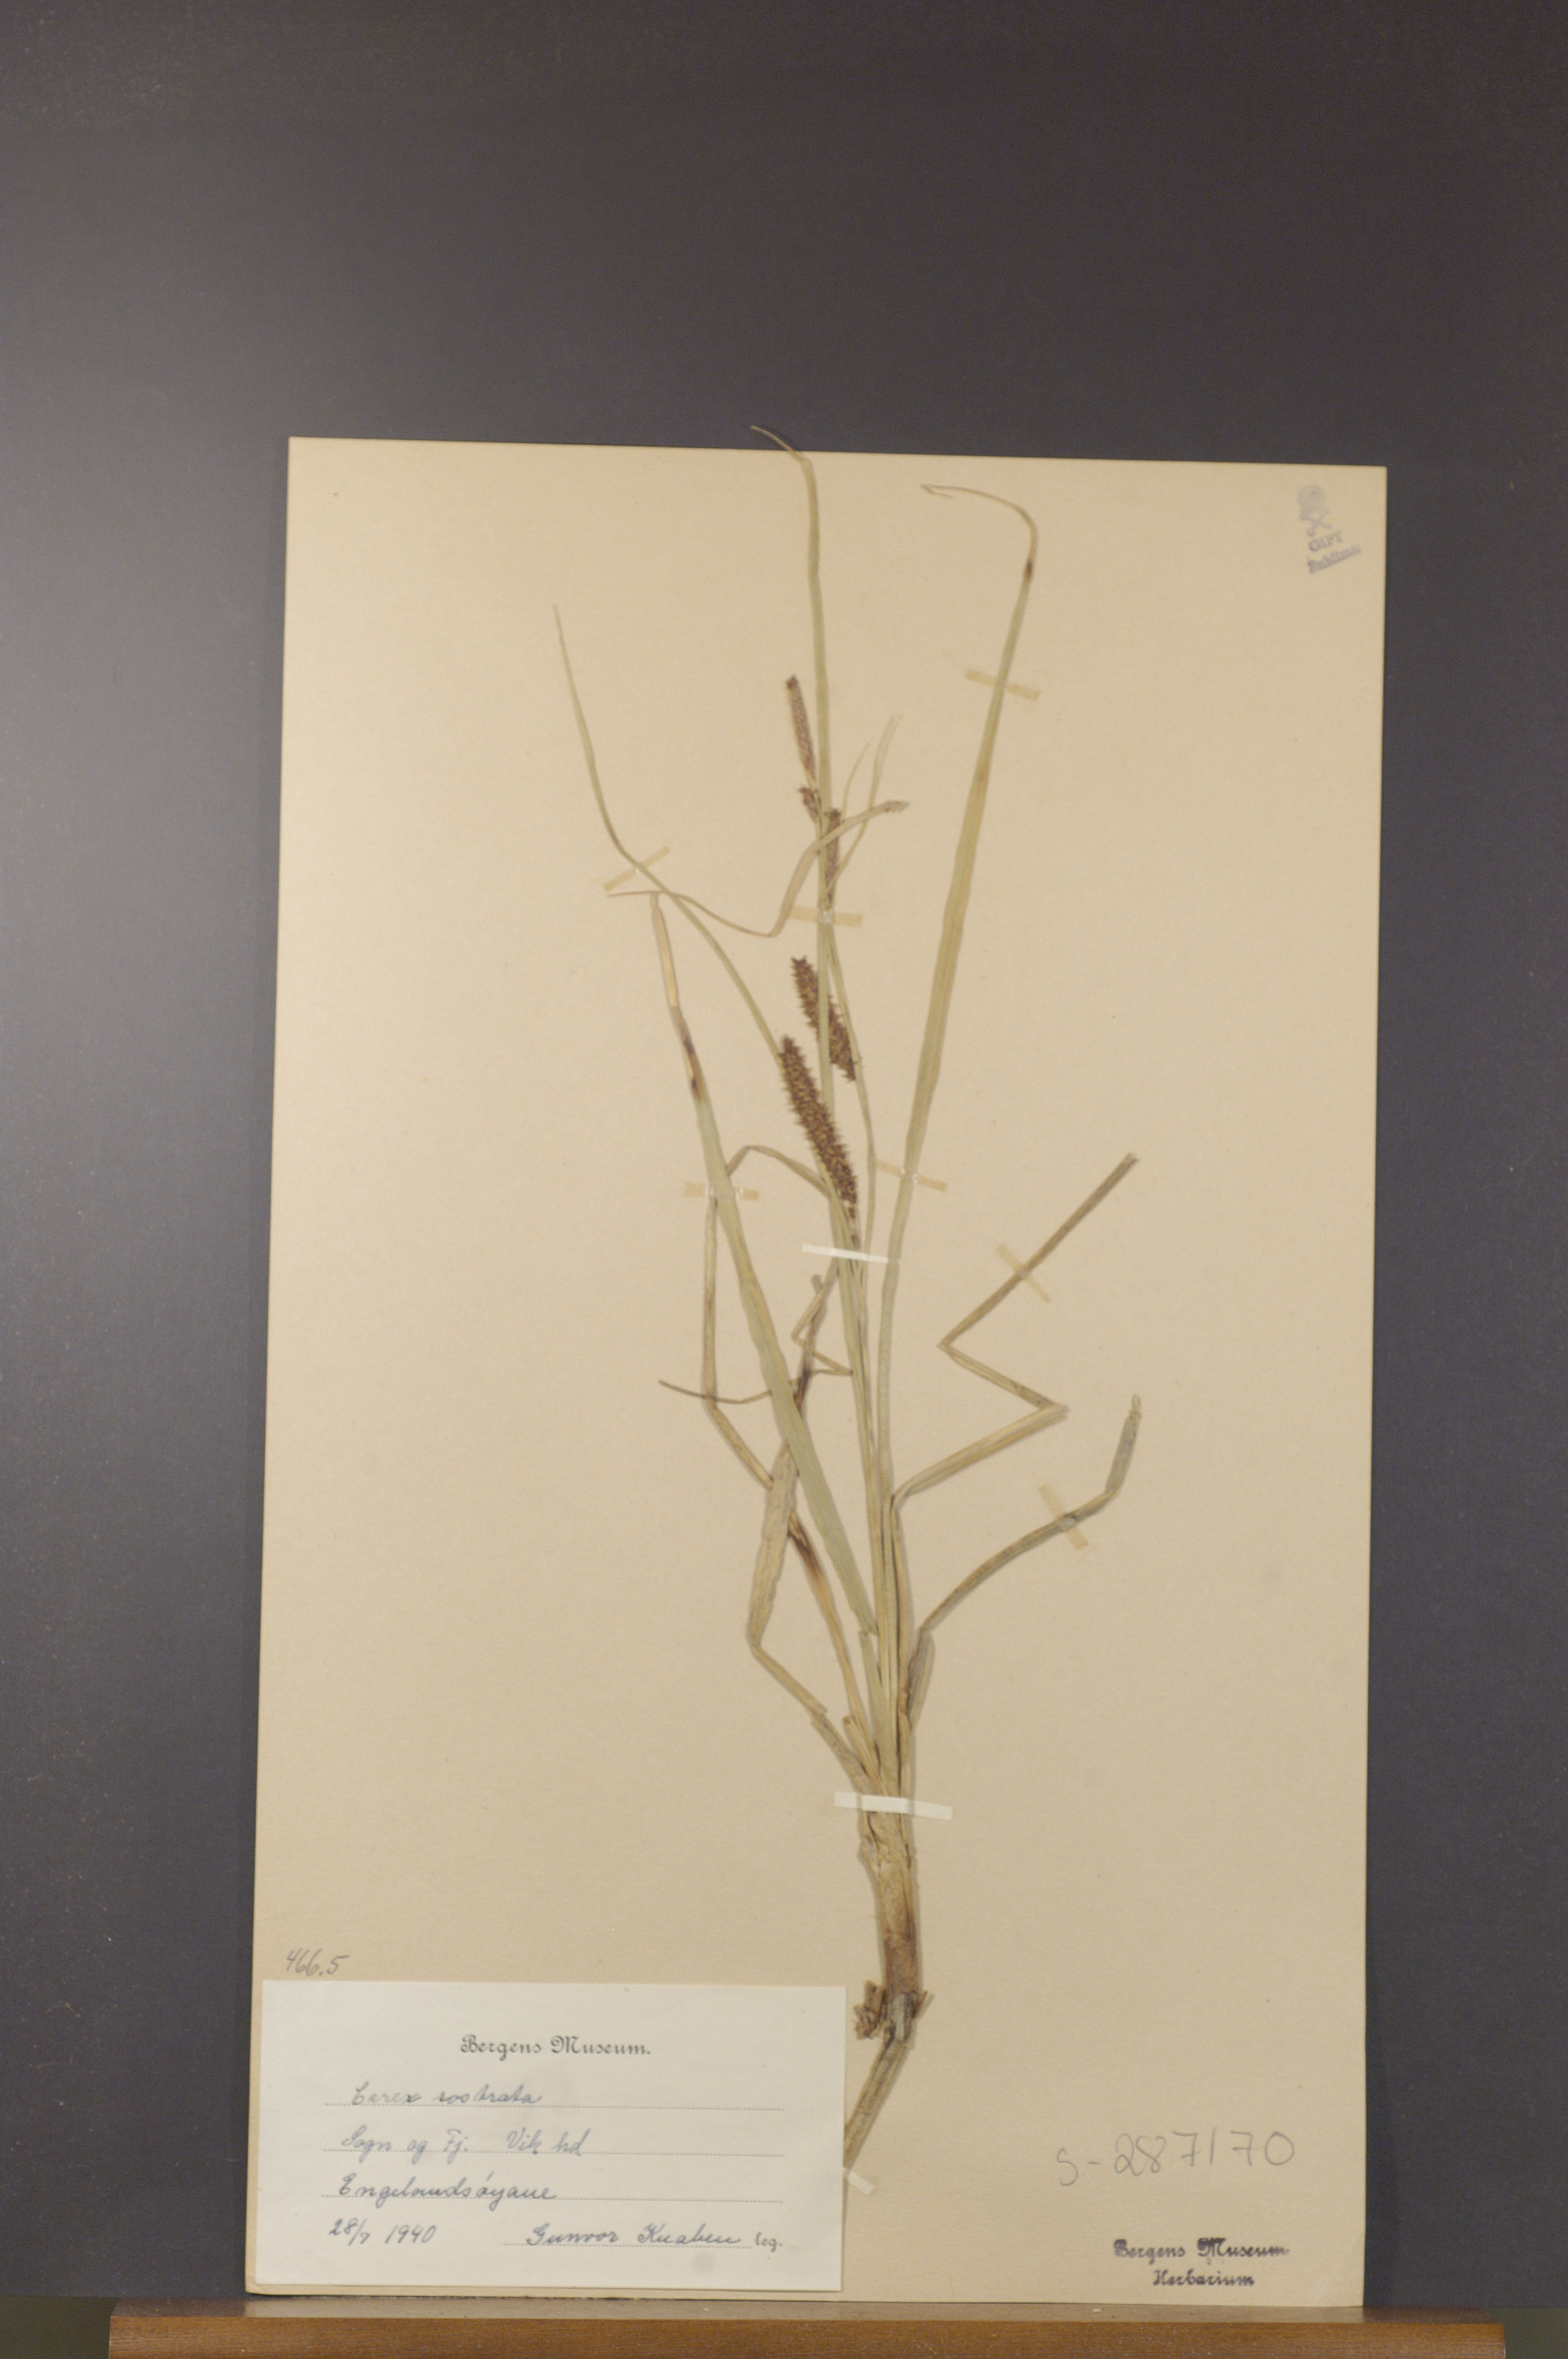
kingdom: Plantae
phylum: Tracheophyta
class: Liliopsida
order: Poales
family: Cyperaceae
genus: Carex
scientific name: Carex rostrata
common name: Bottle sedge
